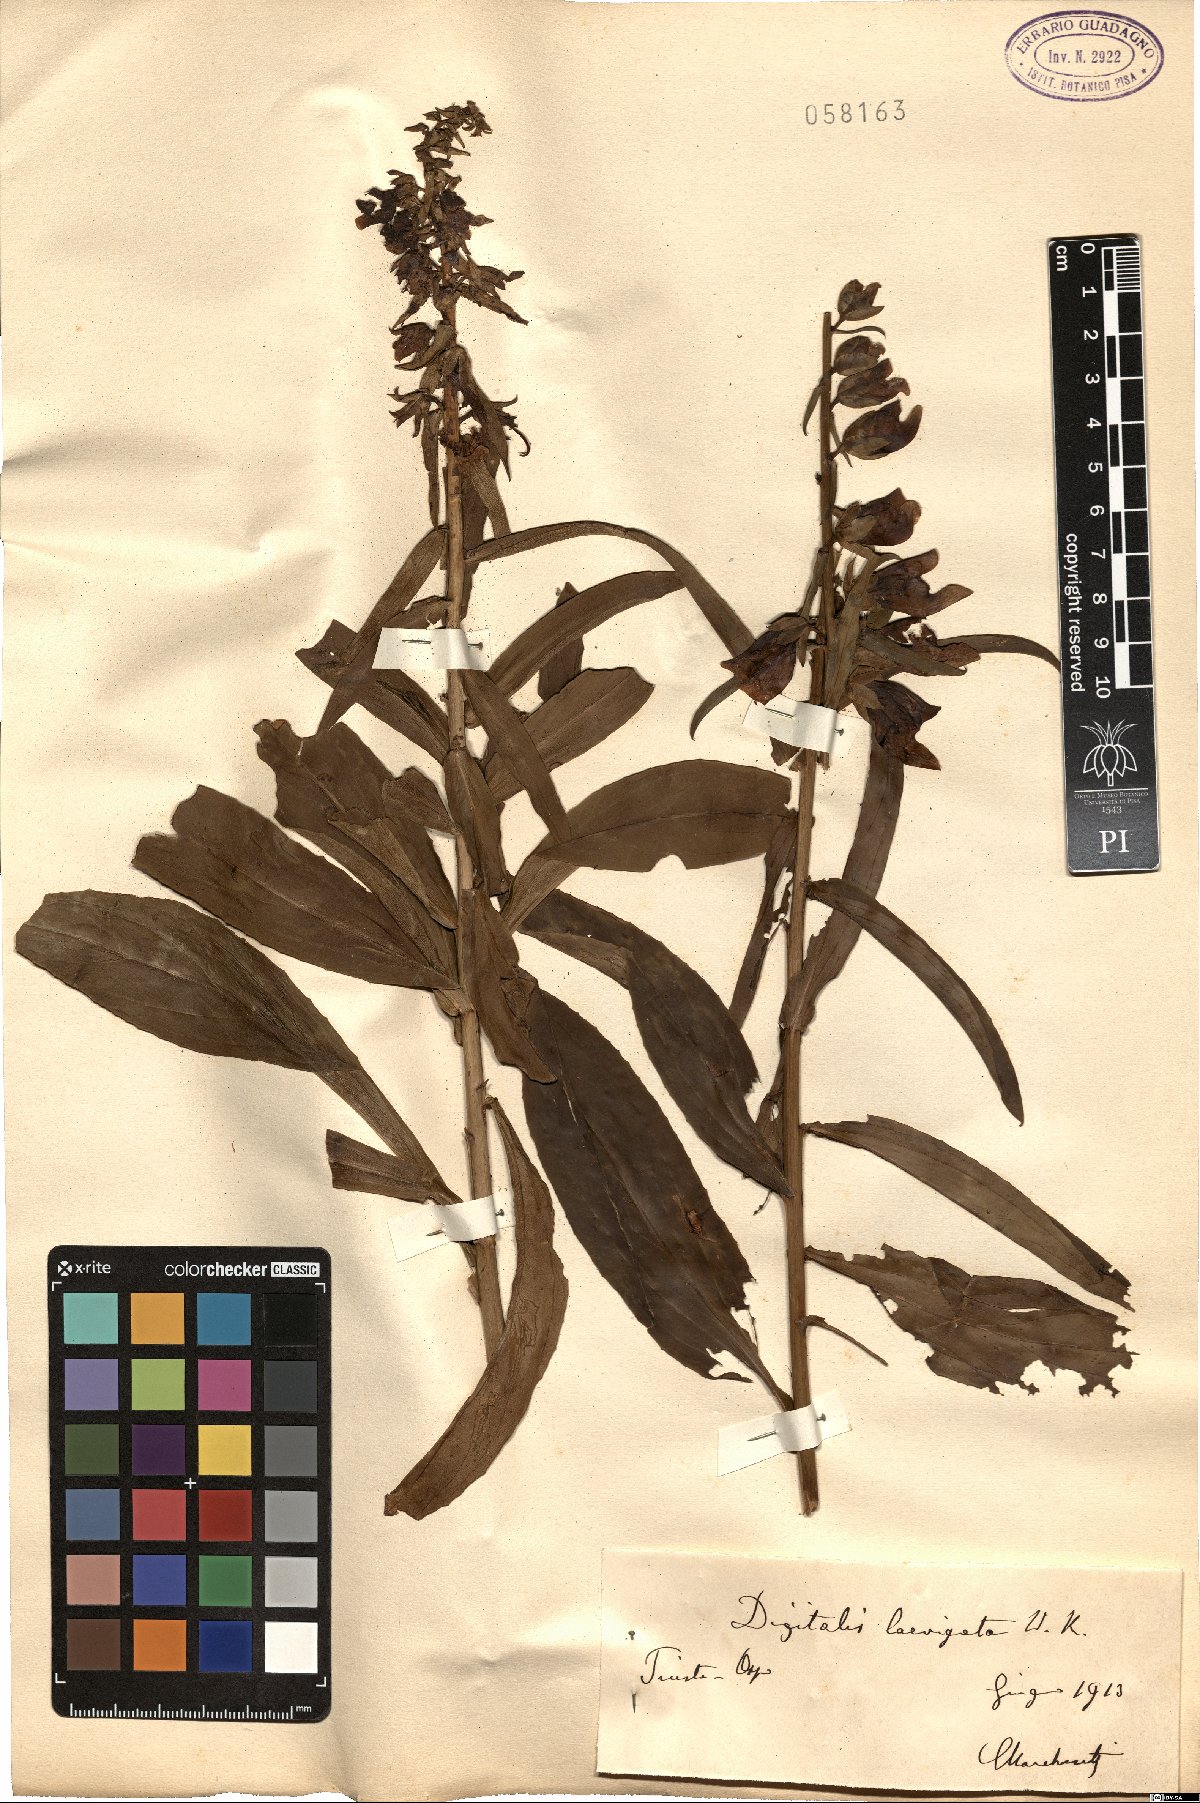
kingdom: Plantae
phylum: Tracheophyta
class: Magnoliopsida
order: Lamiales
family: Plantaginaceae
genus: Digitalis
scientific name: Digitalis laevigata
